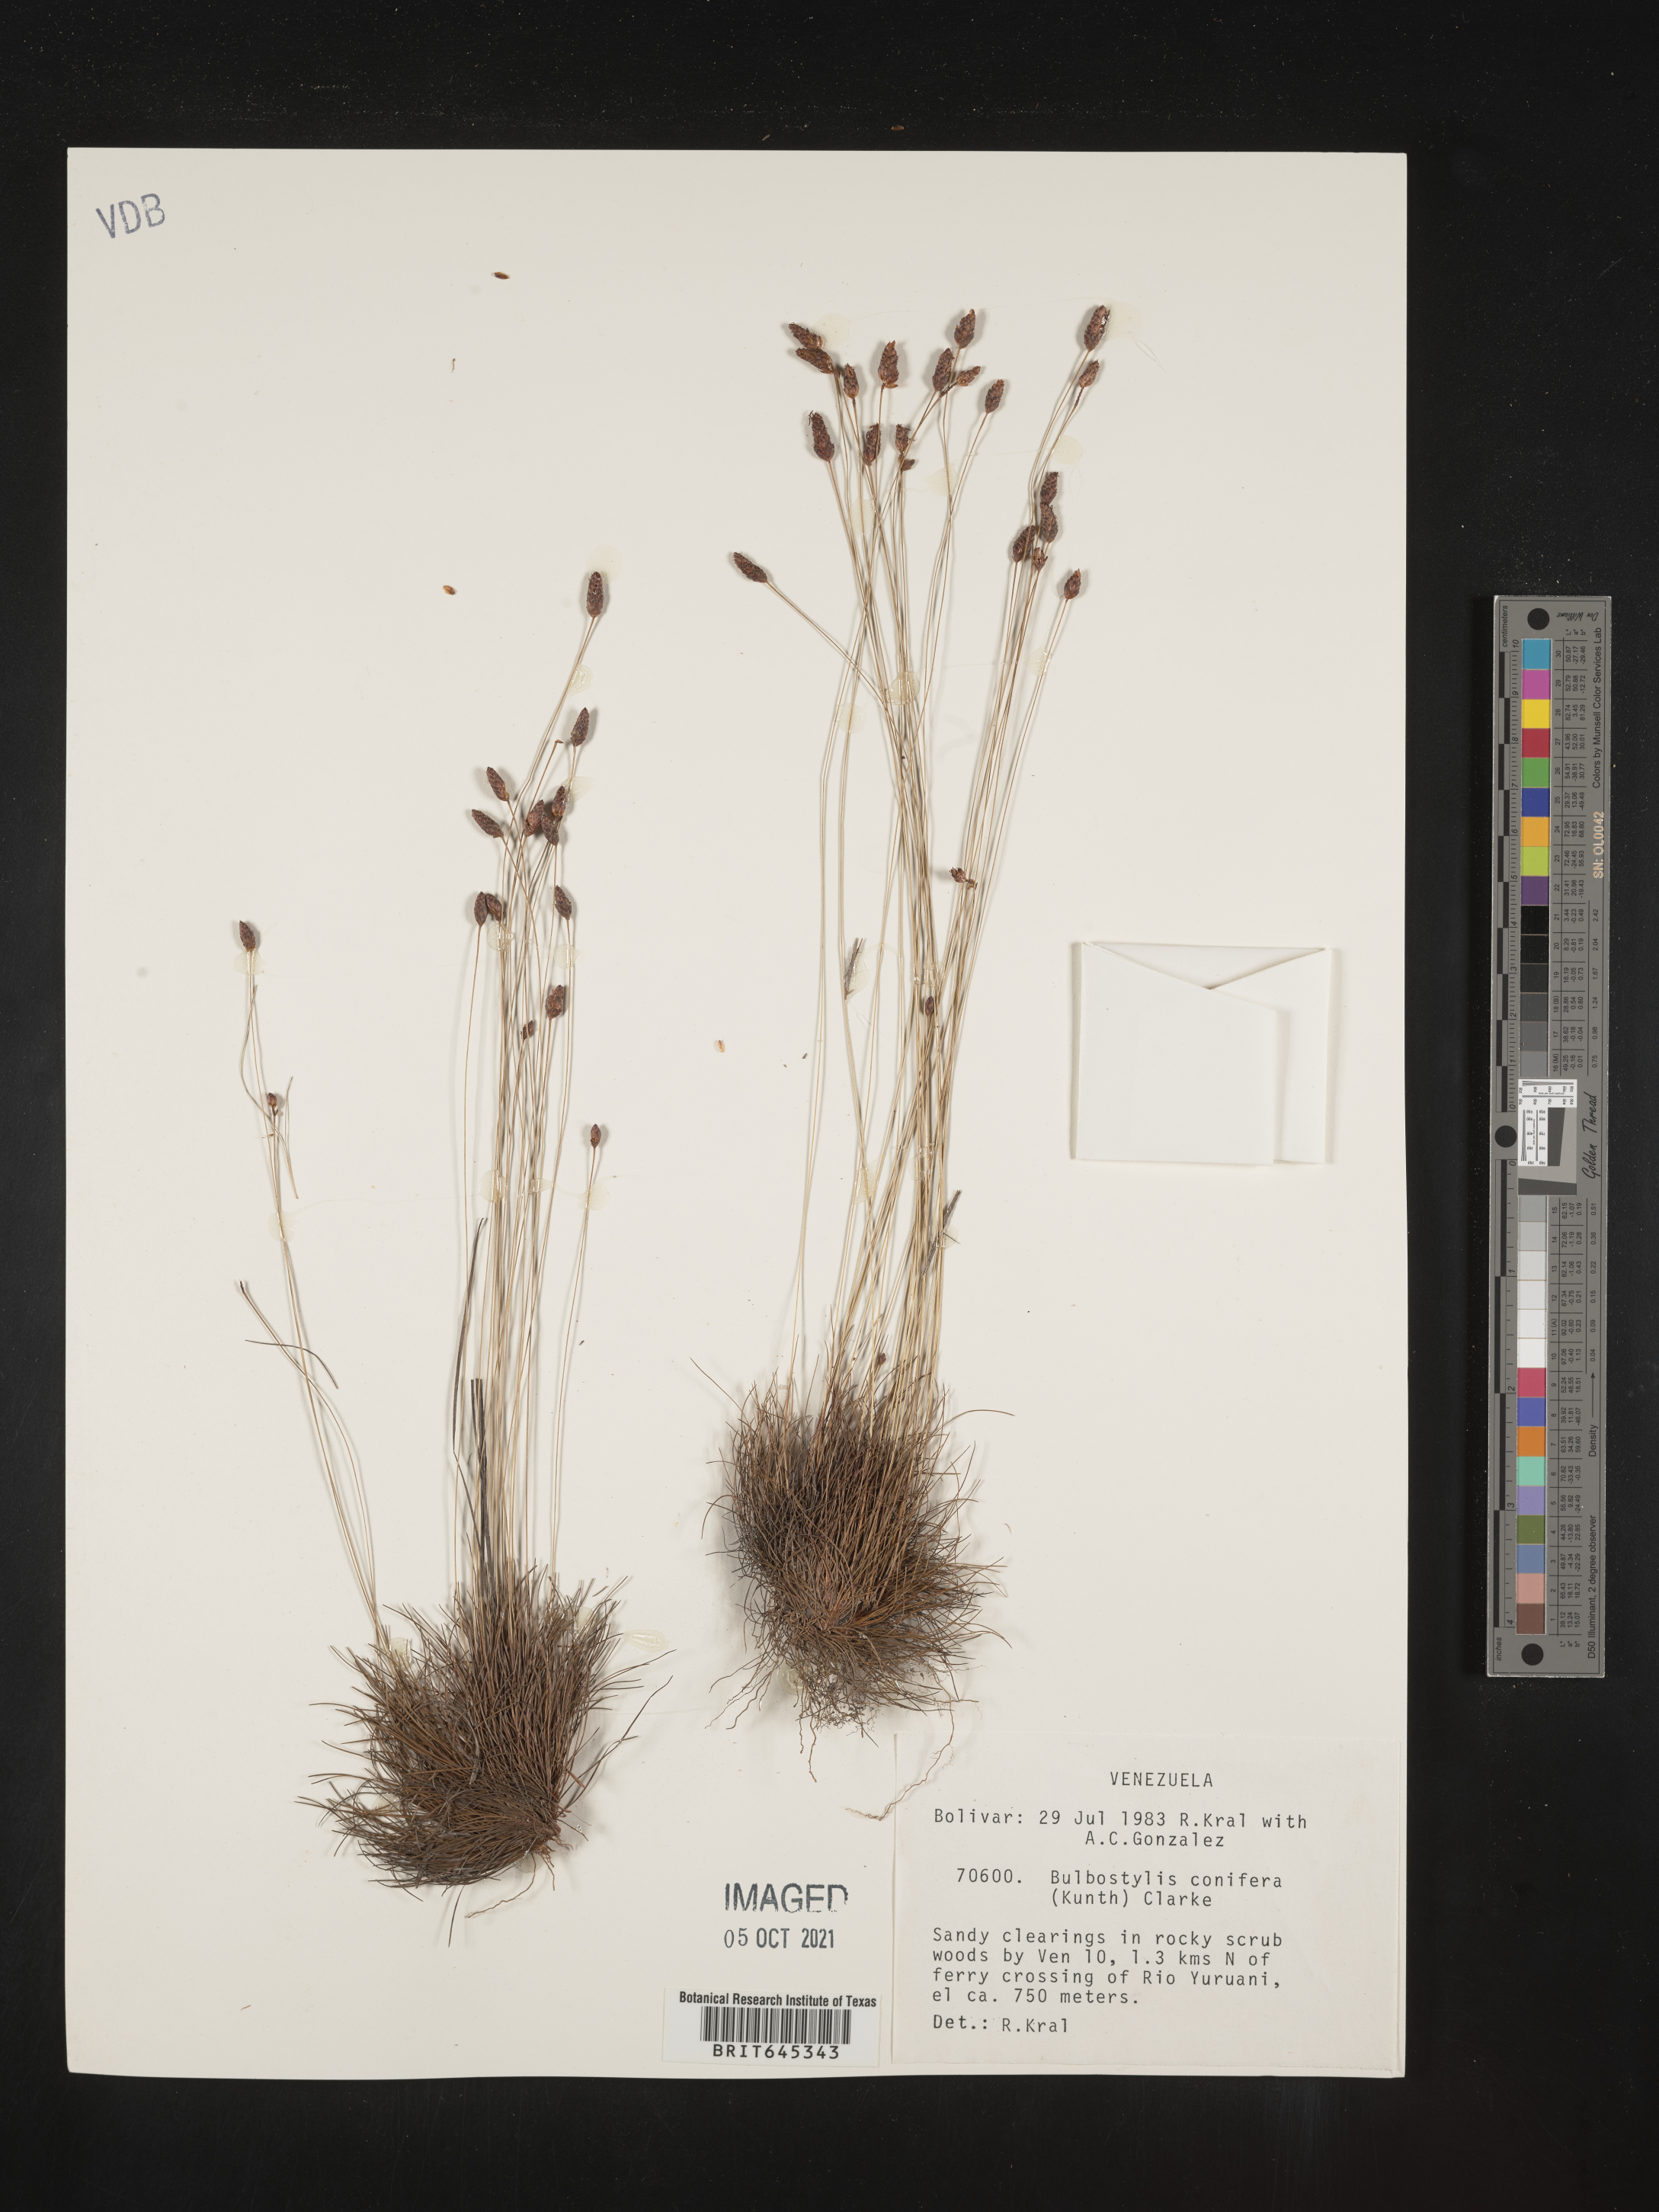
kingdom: Plantae
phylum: Tracheophyta
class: Liliopsida
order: Poales
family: Cyperaceae
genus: Bulbostylis
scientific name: Bulbostylis conifera
